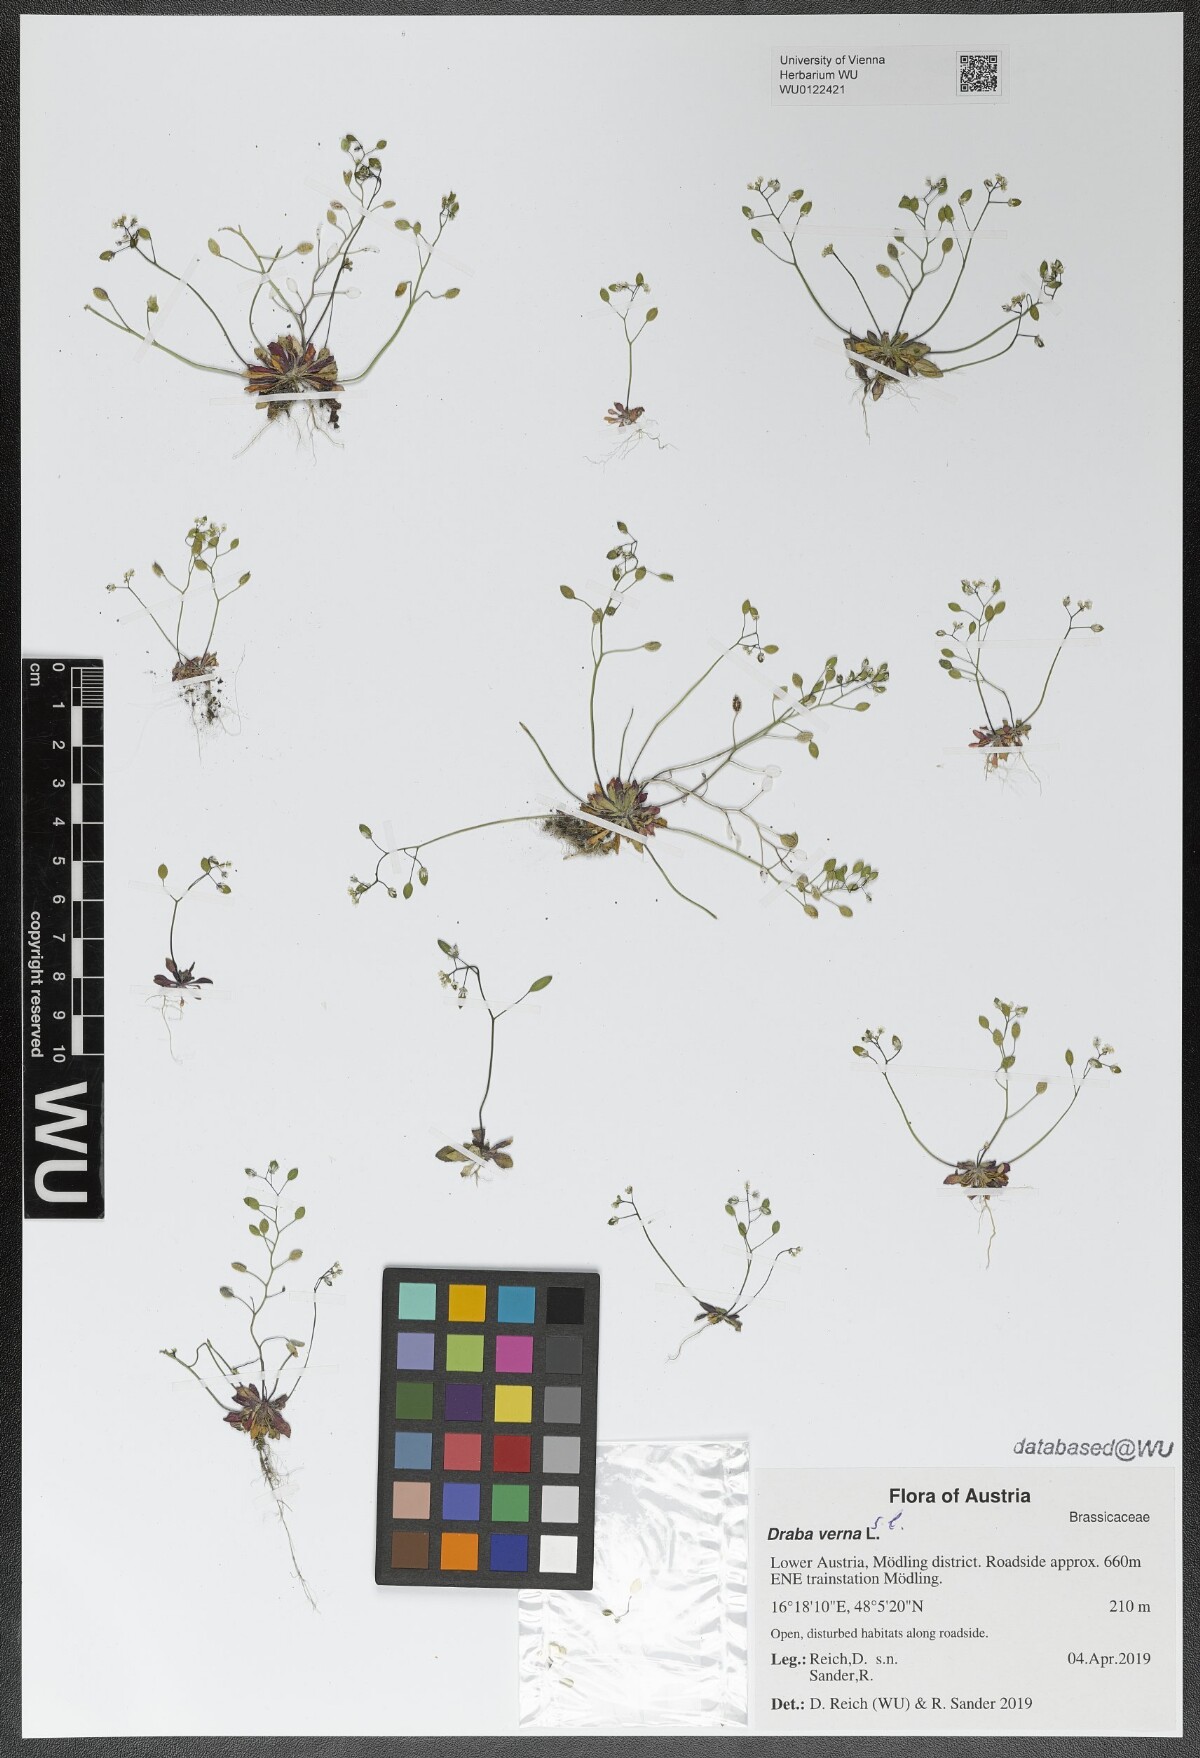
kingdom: Plantae
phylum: Tracheophyta
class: Magnoliopsida
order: Brassicales
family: Brassicaceae
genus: Draba
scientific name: Draba verna
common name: Spring draba
